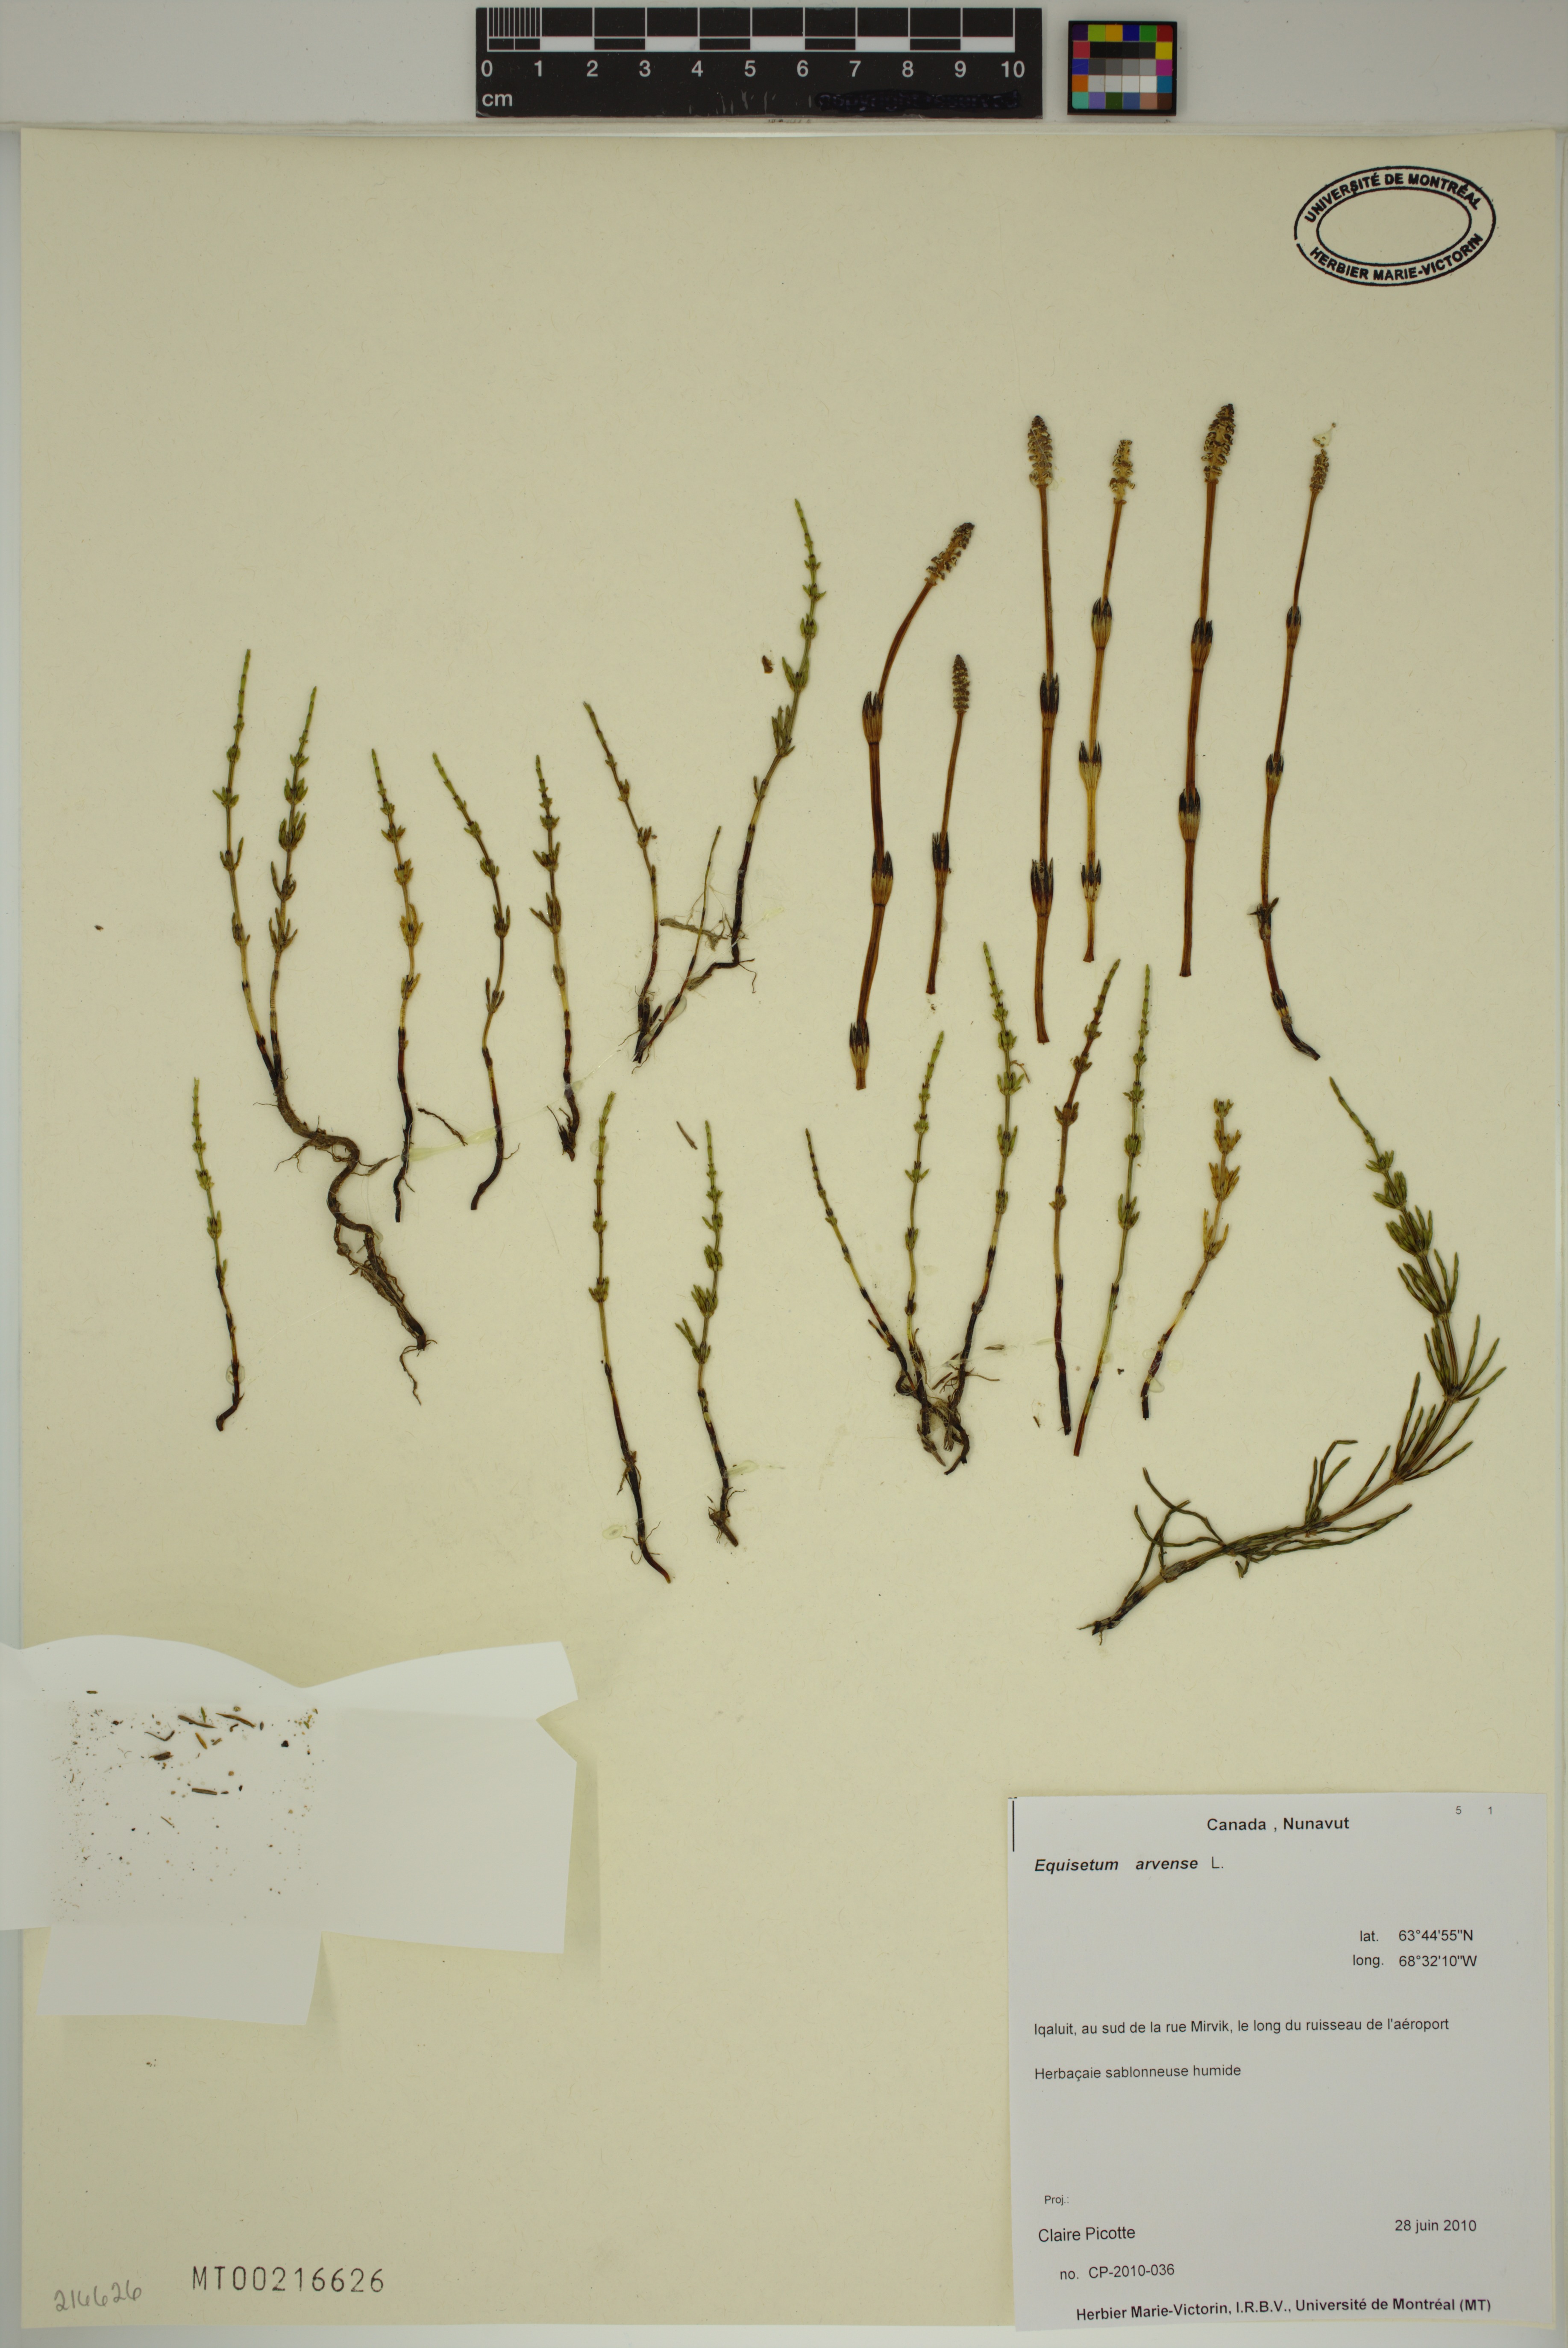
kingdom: Plantae
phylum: Tracheophyta
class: Polypodiopsida
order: Equisetales
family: Equisetaceae
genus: Equisetum
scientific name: Equisetum arvense
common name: Field horsetail
